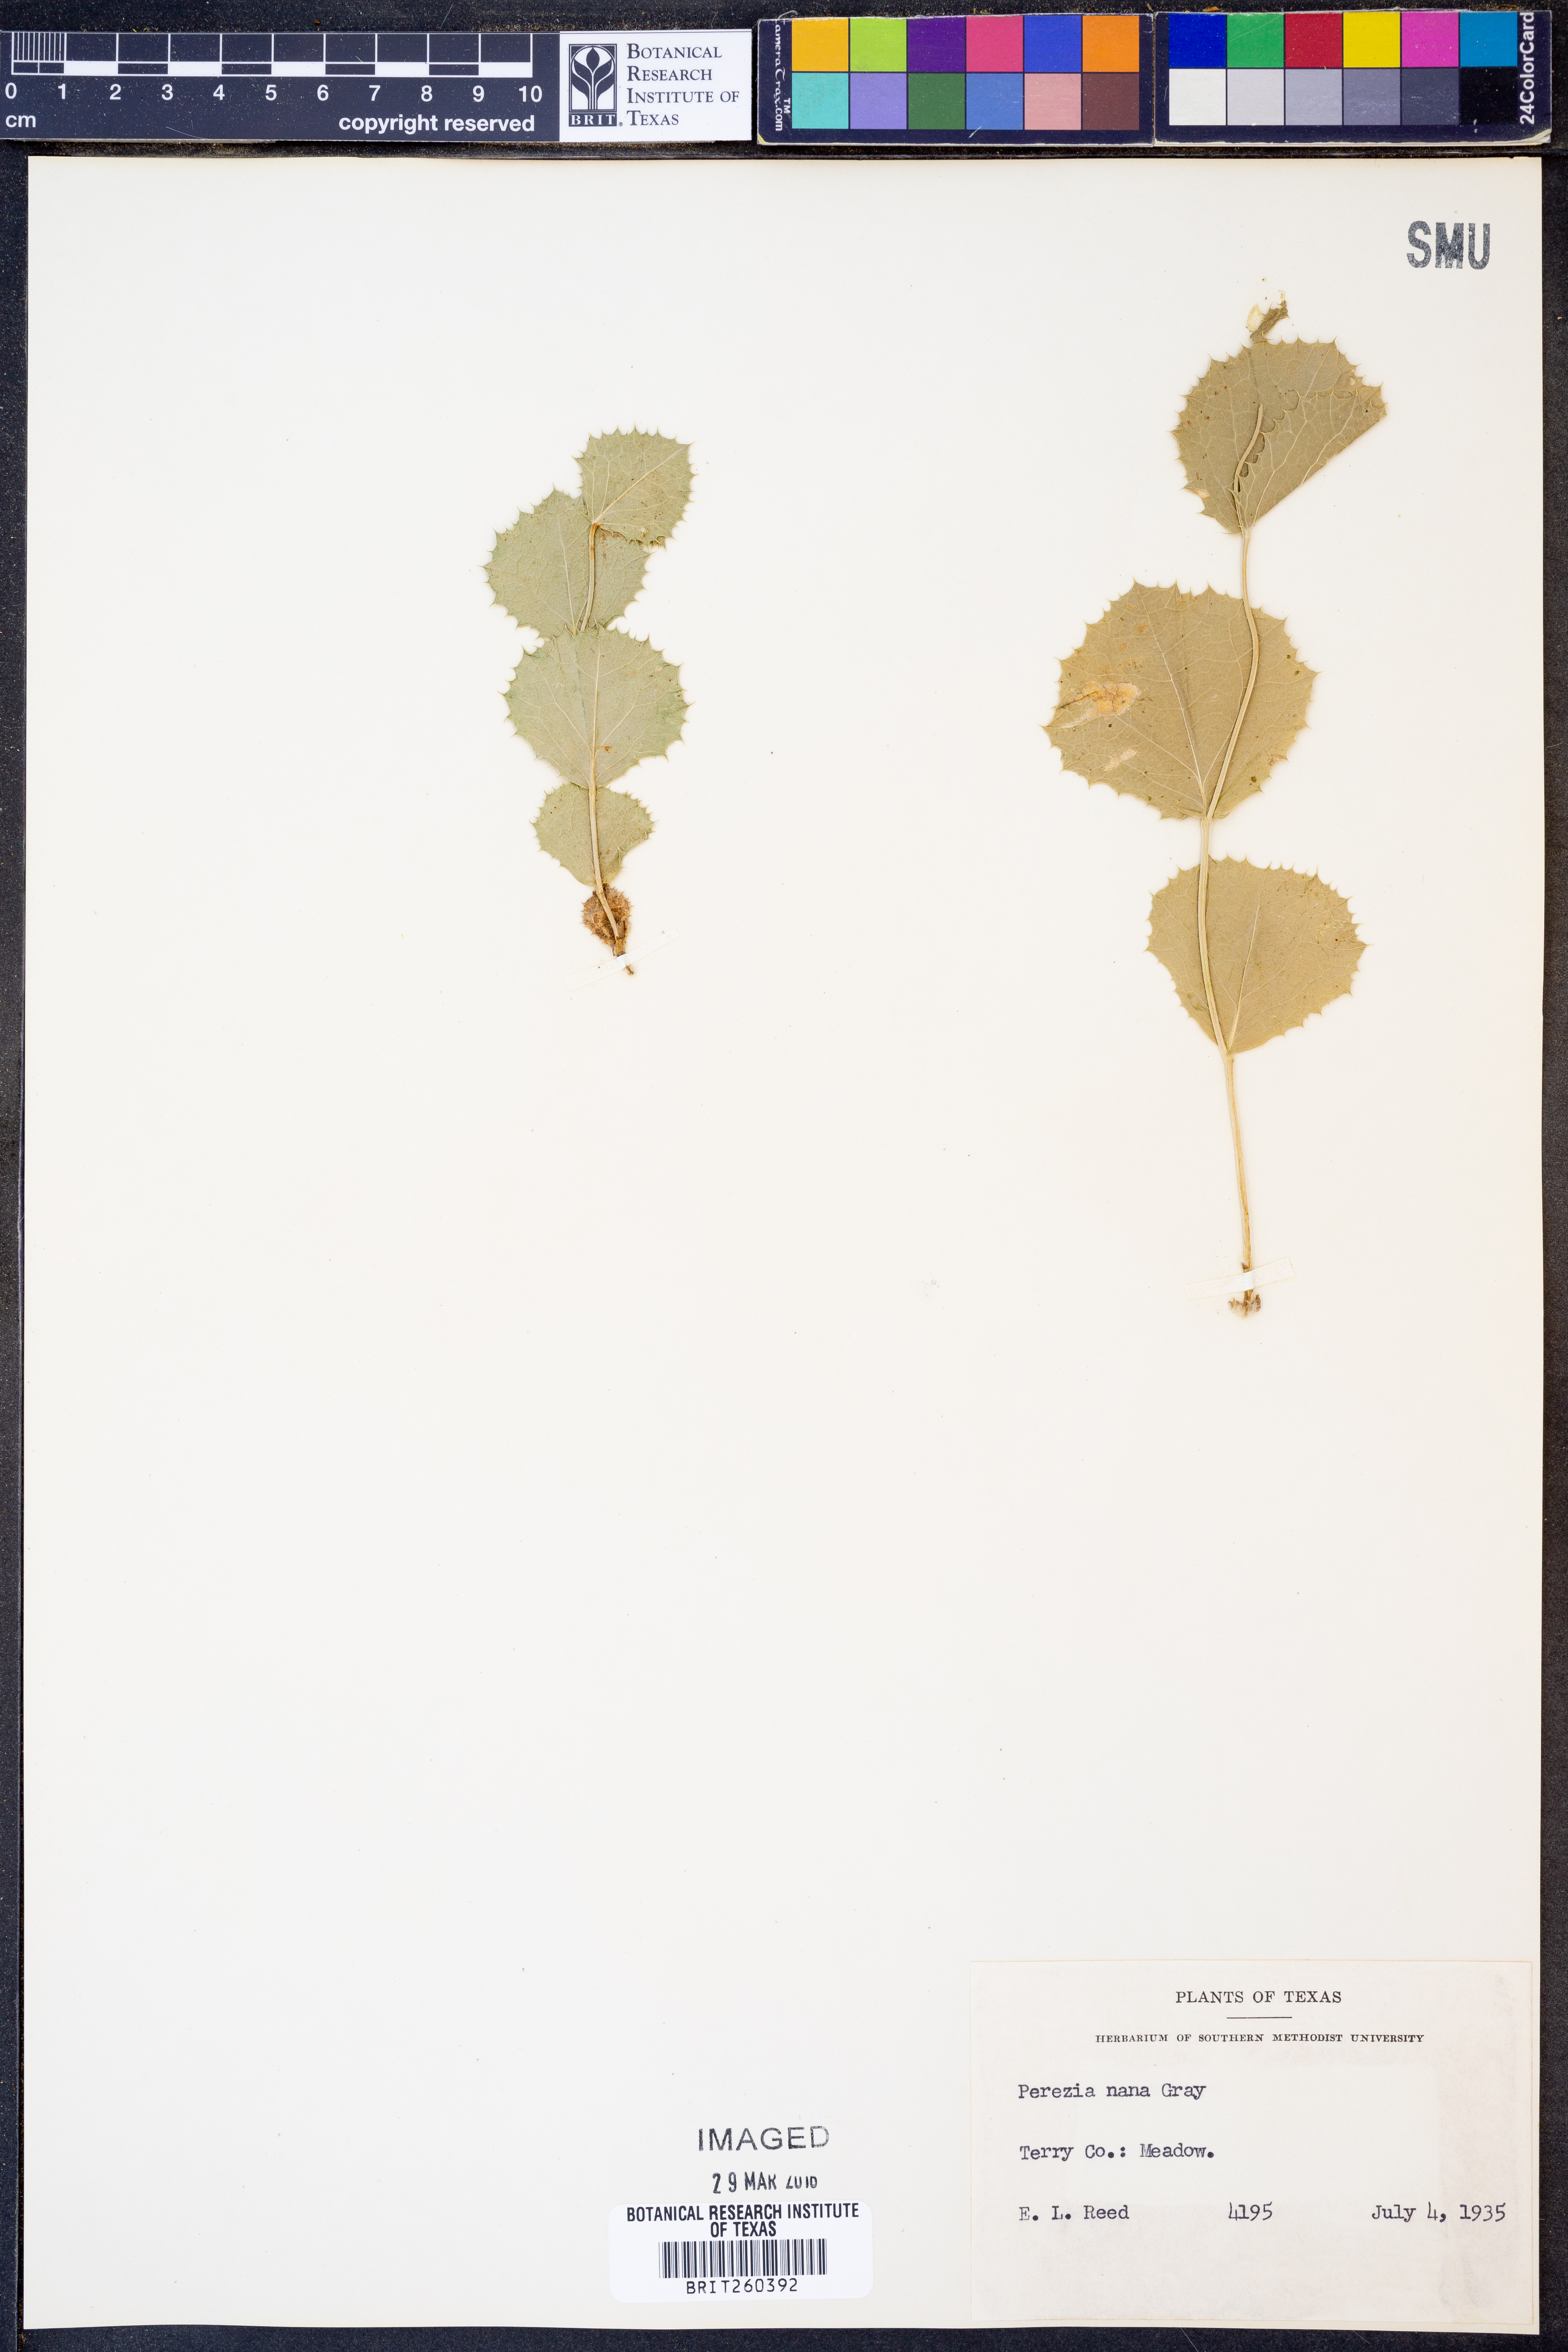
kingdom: Plantae
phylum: Tracheophyta
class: Magnoliopsida
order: Asterales
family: Asteraceae
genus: Acourtia
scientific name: Acourtia nana
